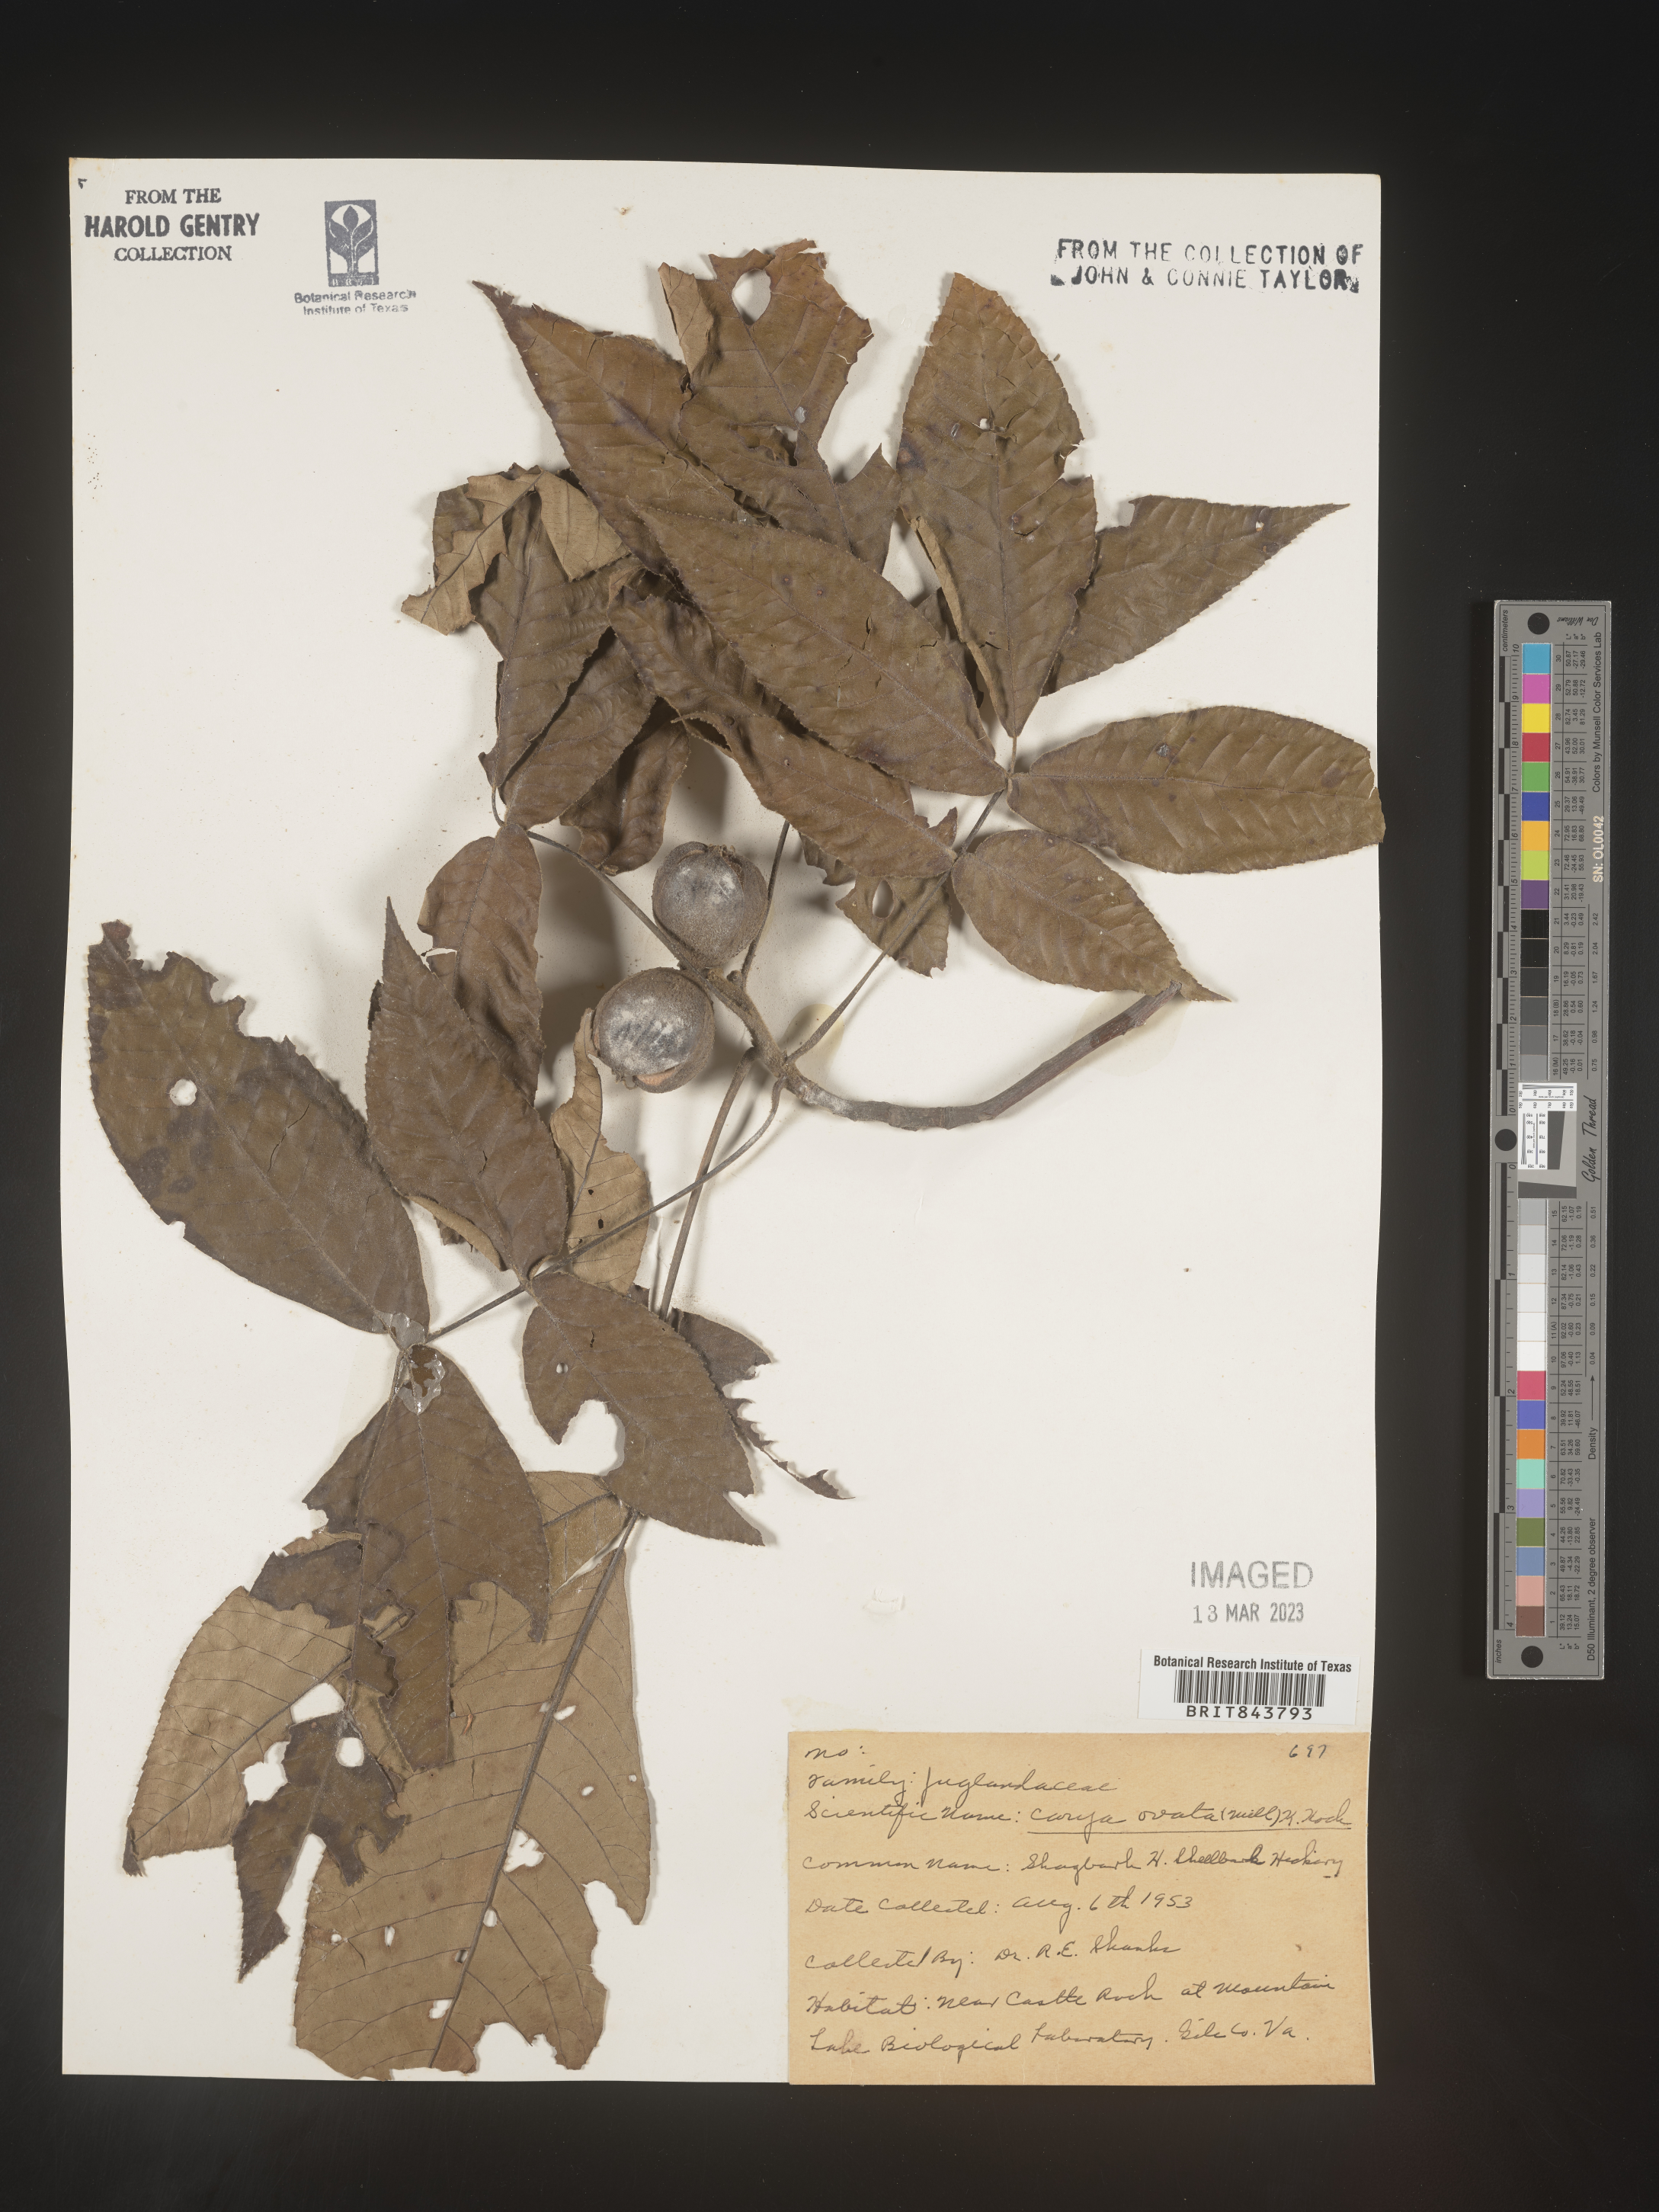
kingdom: Plantae
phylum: Tracheophyta
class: Magnoliopsida
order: Fagales
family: Juglandaceae
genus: Carya
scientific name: Carya ovata
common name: Shagbark hickory
